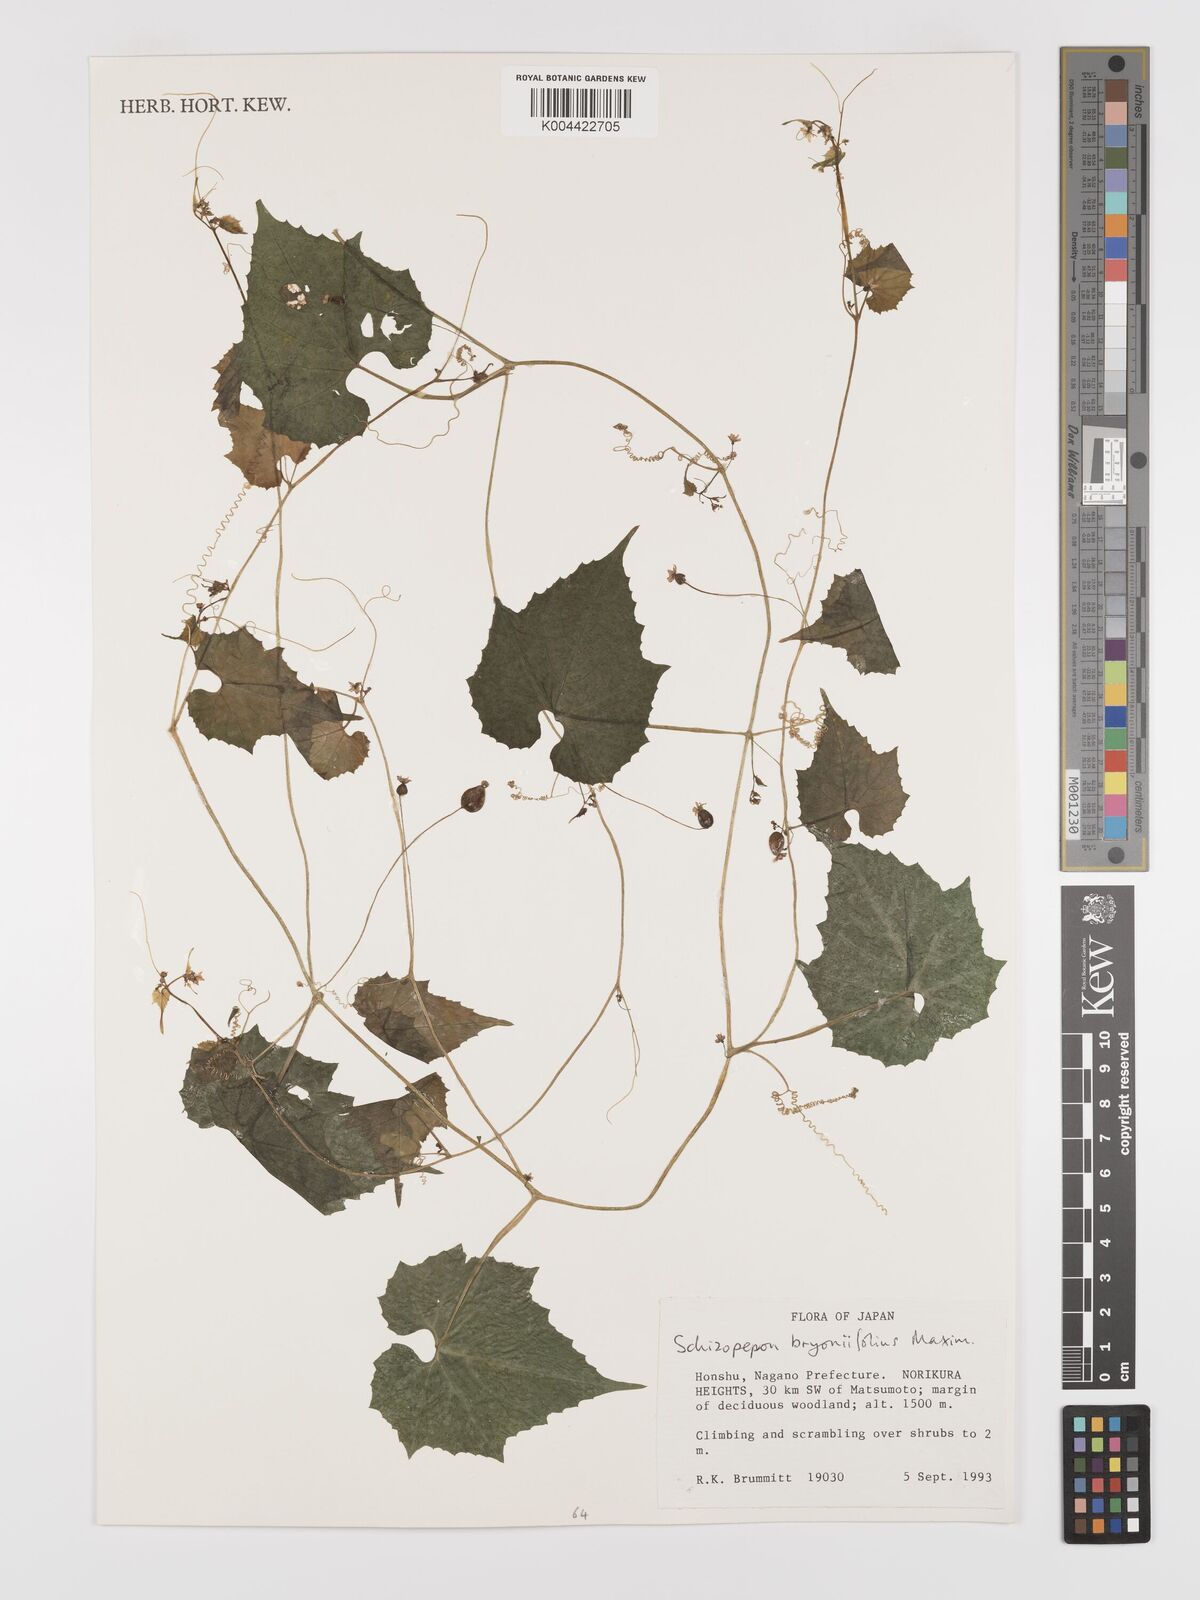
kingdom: Plantae
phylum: Tracheophyta
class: Magnoliopsida
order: Cucurbitales
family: Cucurbitaceae
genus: Schizopepon
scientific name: Schizopepon bryoniifolius
